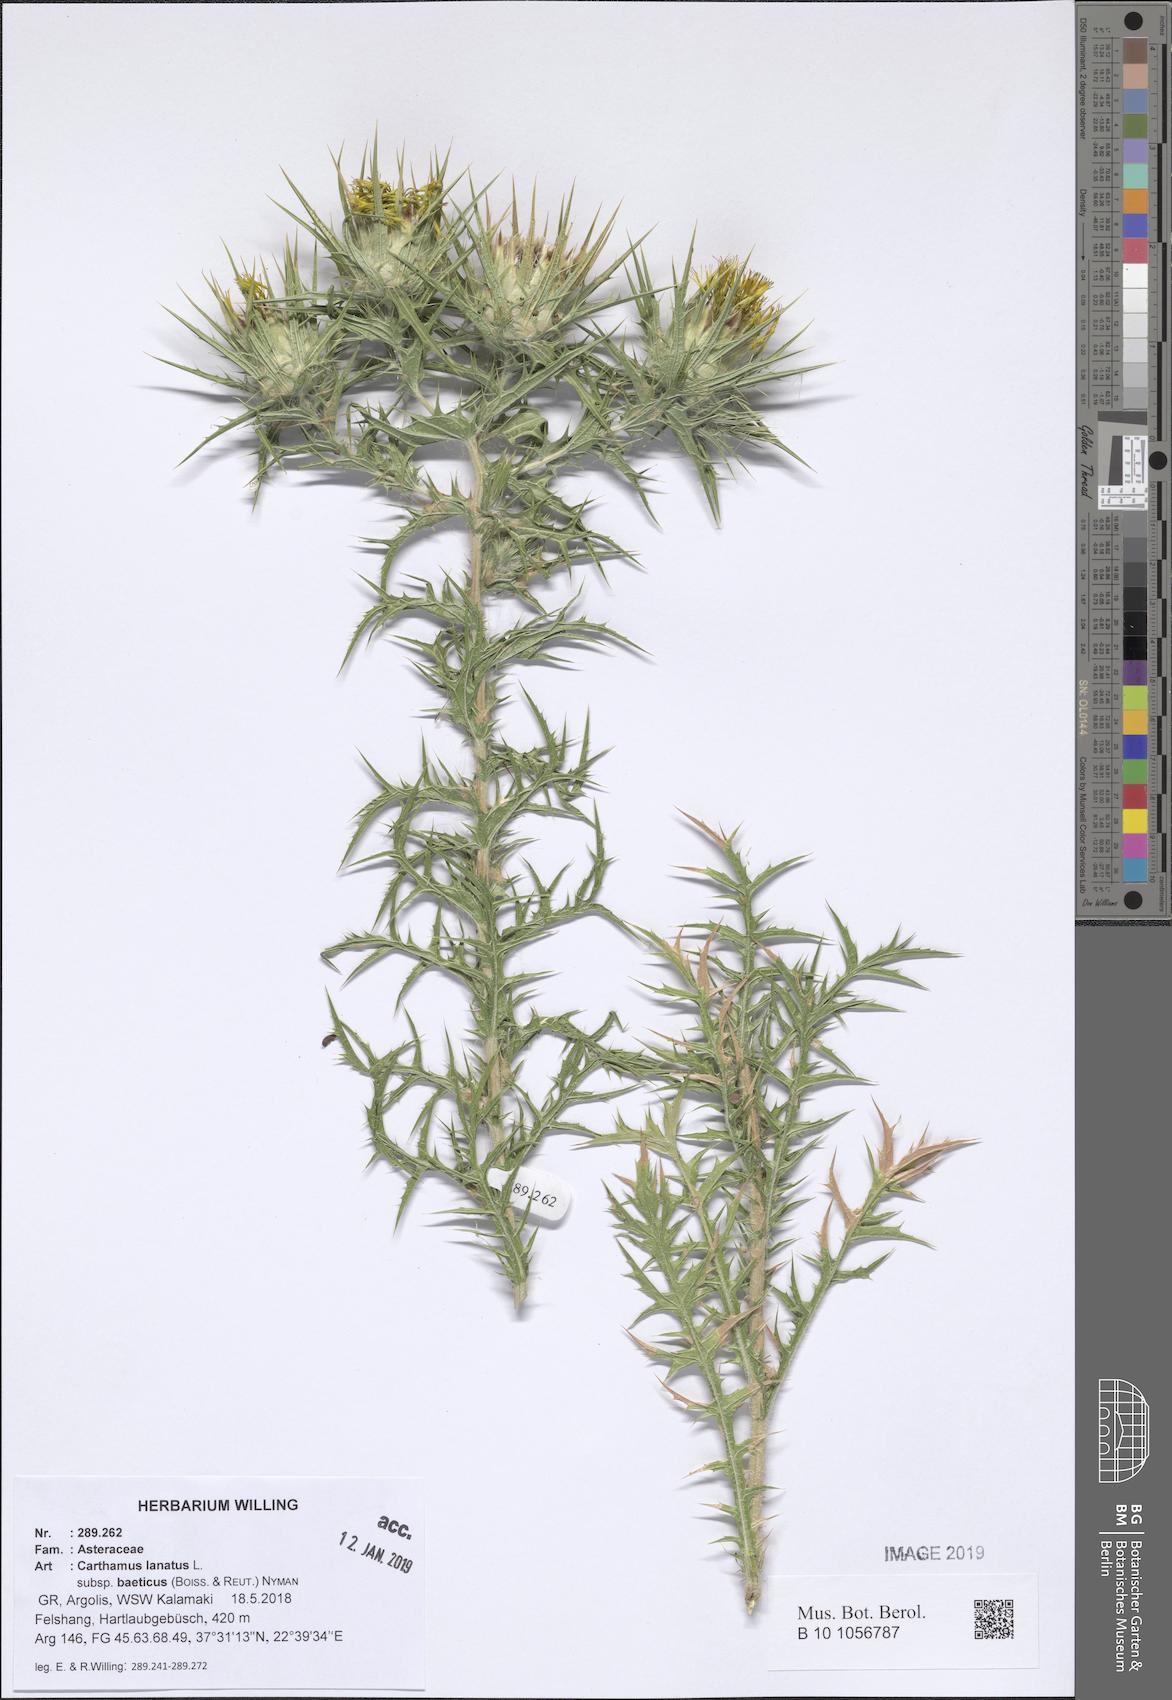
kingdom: Plantae
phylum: Tracheophyta
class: Magnoliopsida
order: Asterales
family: Asteraceae
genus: Carthamus
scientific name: Carthamus creticus
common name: Smooth distaff thistle
